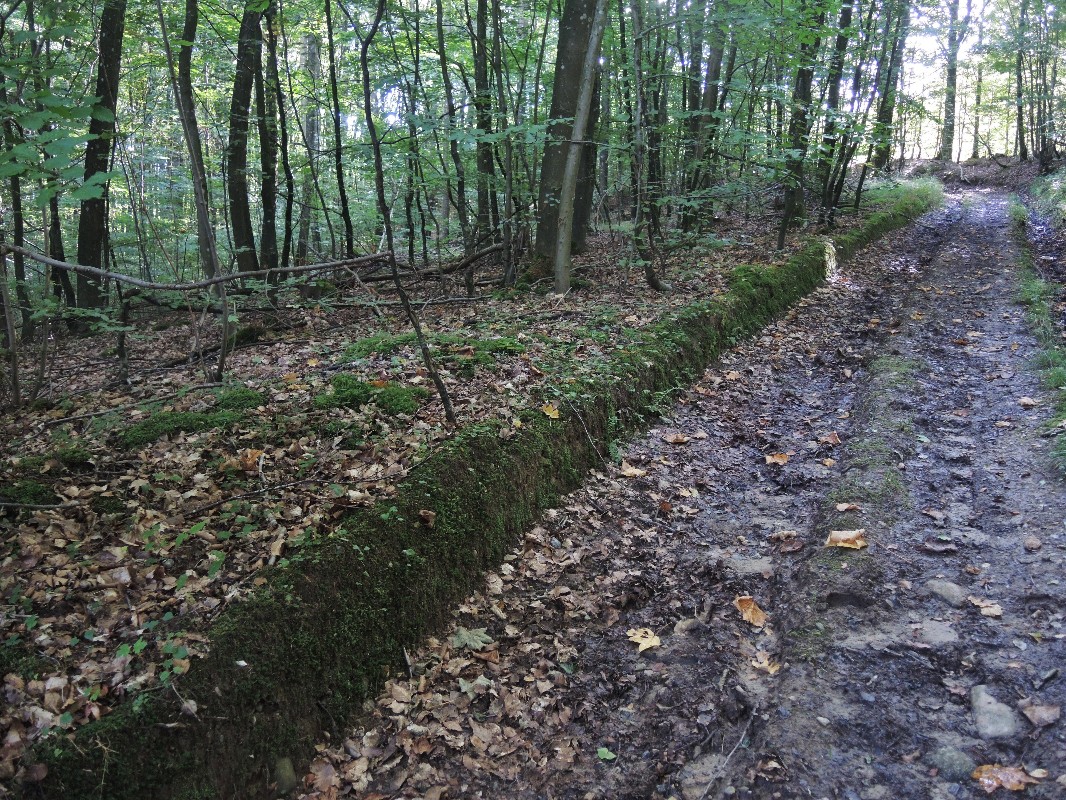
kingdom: Fungi
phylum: Basidiomycota
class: Agaricomycetes
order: Agaricales
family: Hygrophoraceae
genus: Cuphophyllus
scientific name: Cuphophyllus flavipes
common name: gulfodet vokshat
